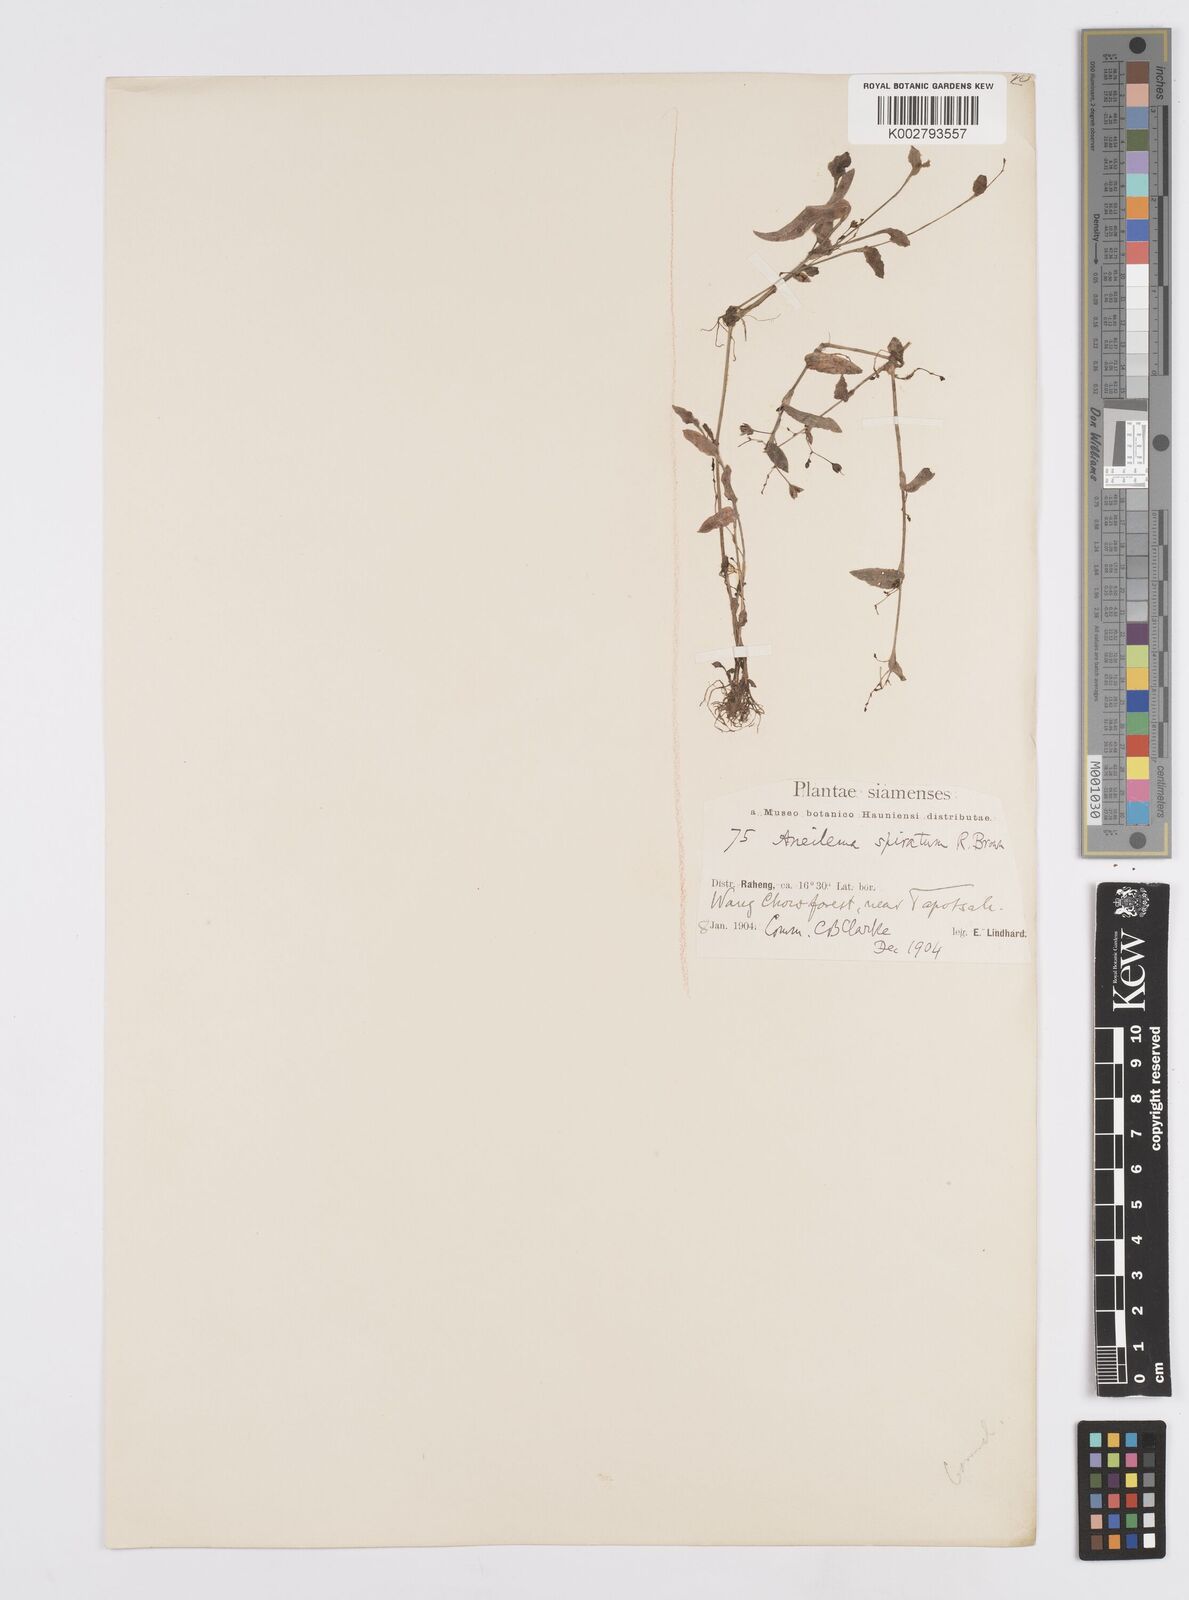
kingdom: Plantae
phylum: Tracheophyta
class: Liliopsida
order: Commelinales
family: Commelinaceae
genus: Murdannia
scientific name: Murdannia spirata
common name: Asiatic dewflower
